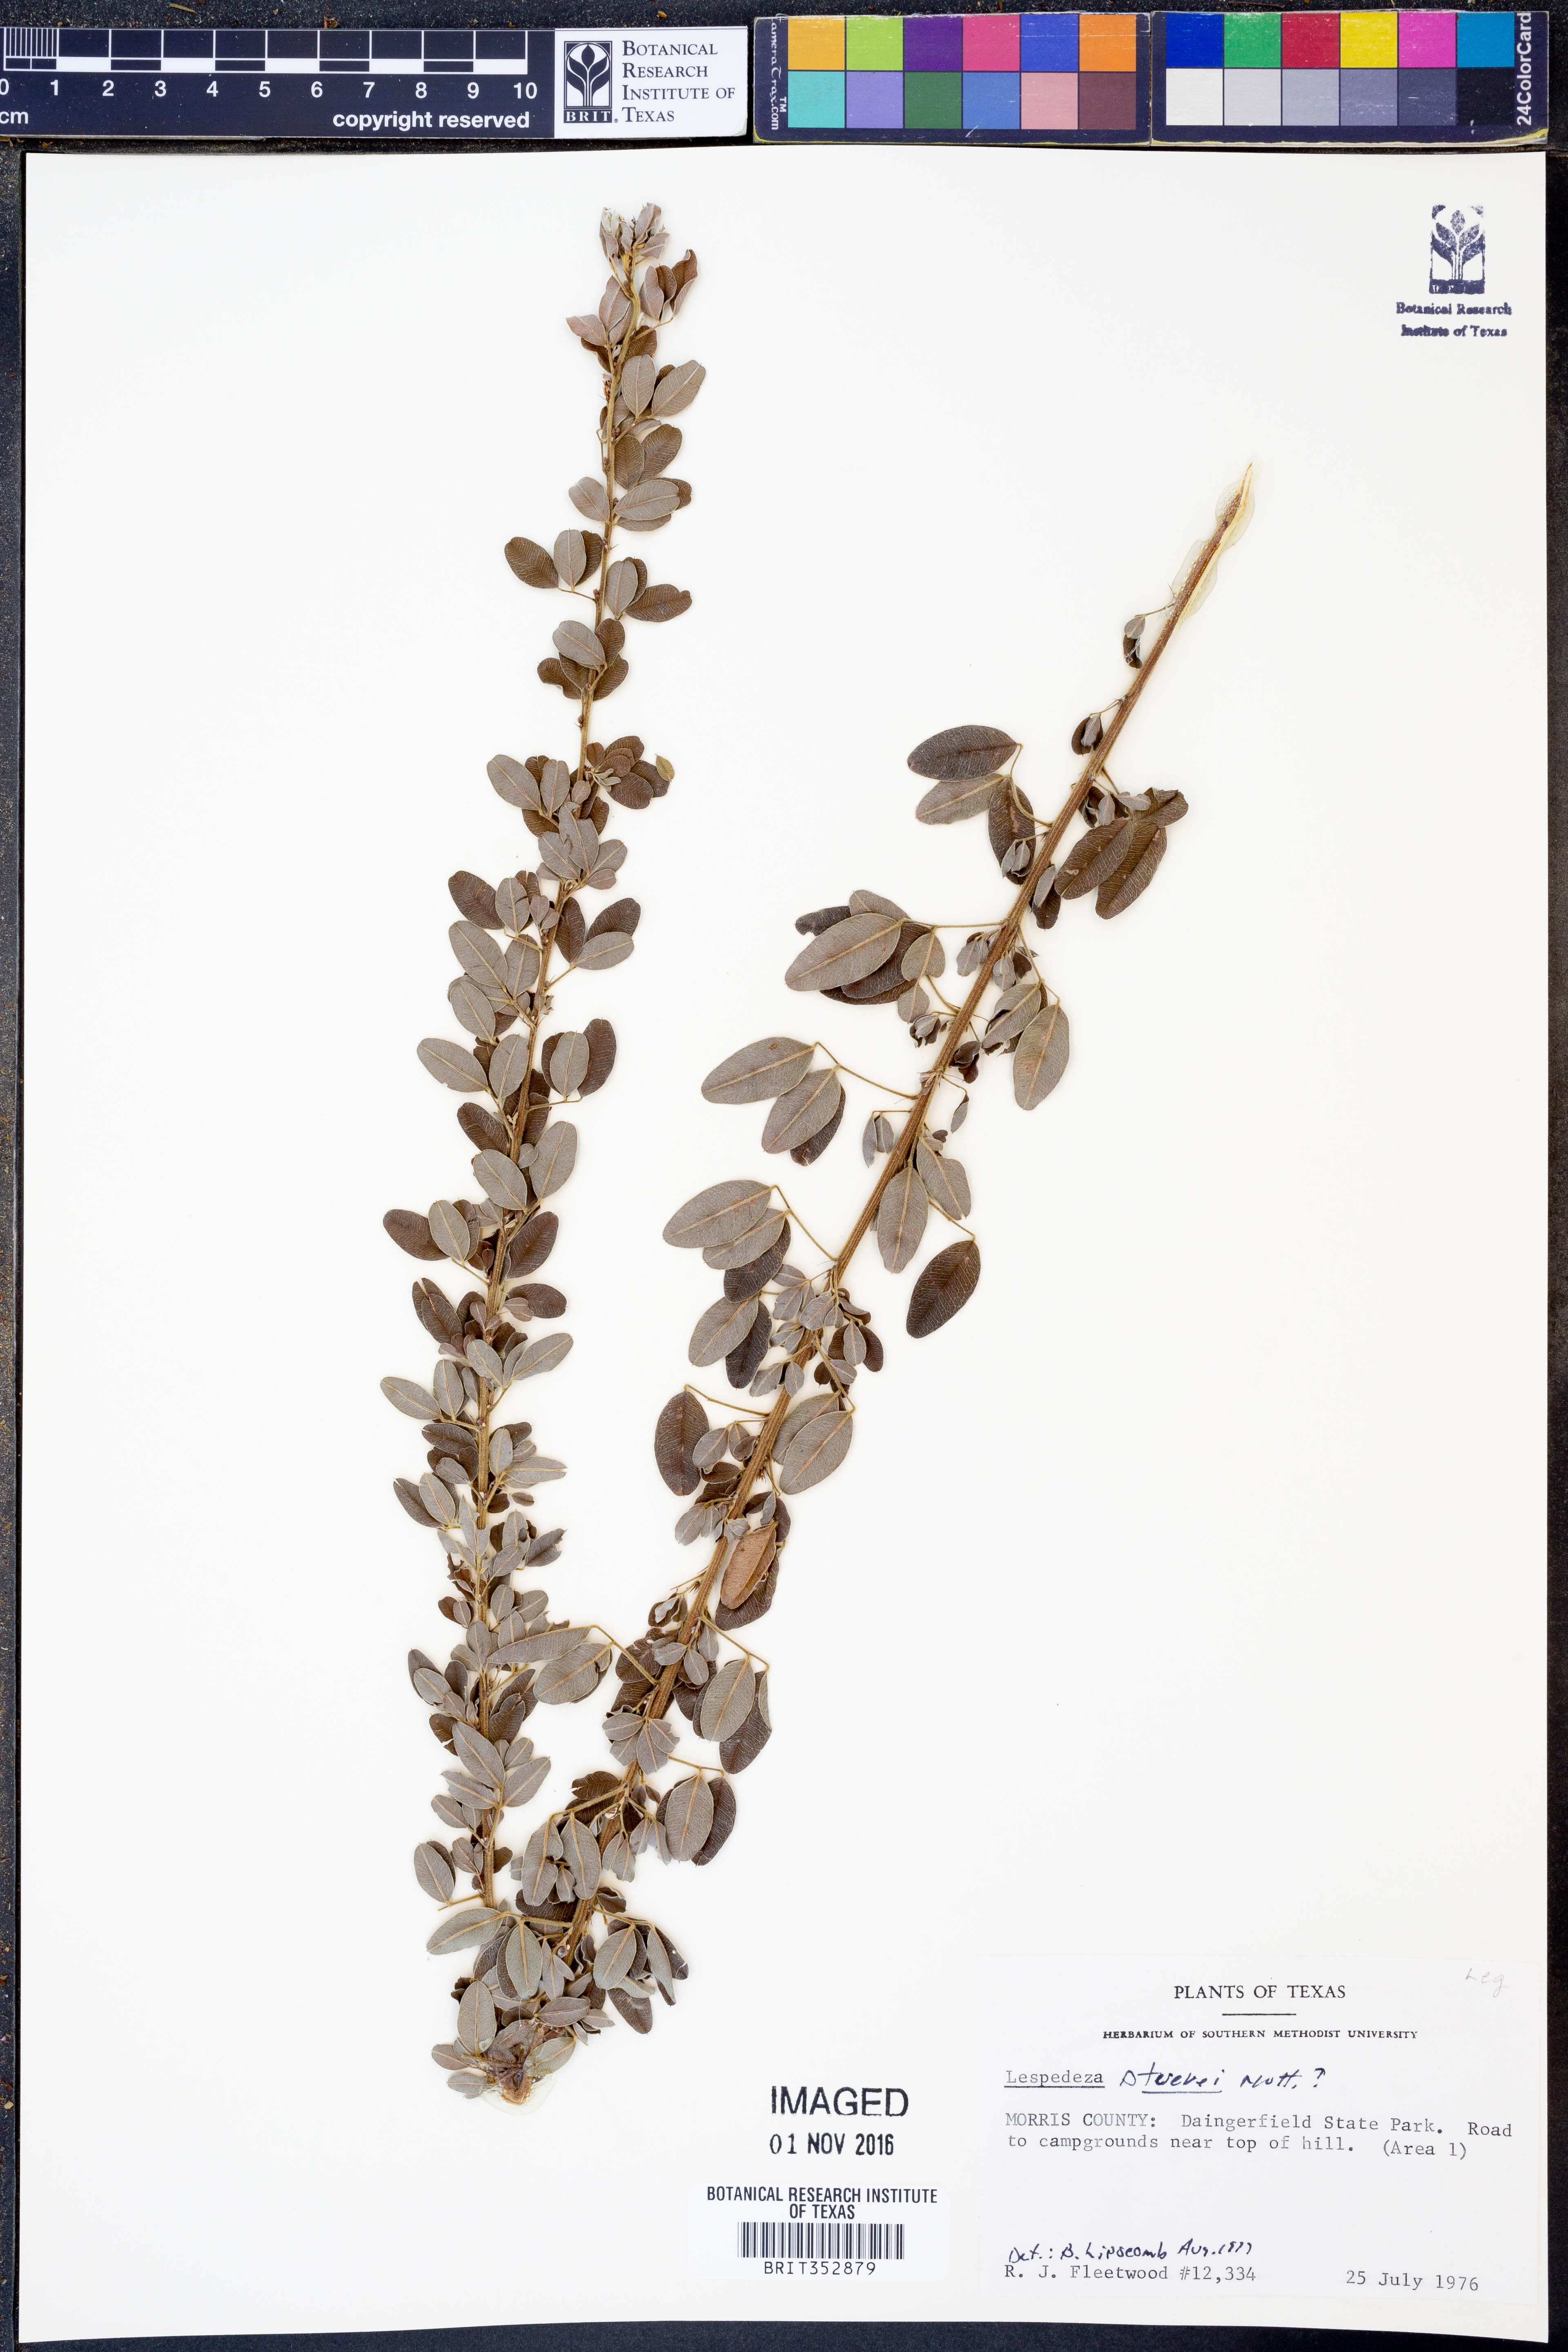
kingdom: Plantae
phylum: Tracheophyta
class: Magnoliopsida
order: Fabales
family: Fabaceae
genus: Lespedeza
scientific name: Lespedeza stuevei
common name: Tall bush-clover
